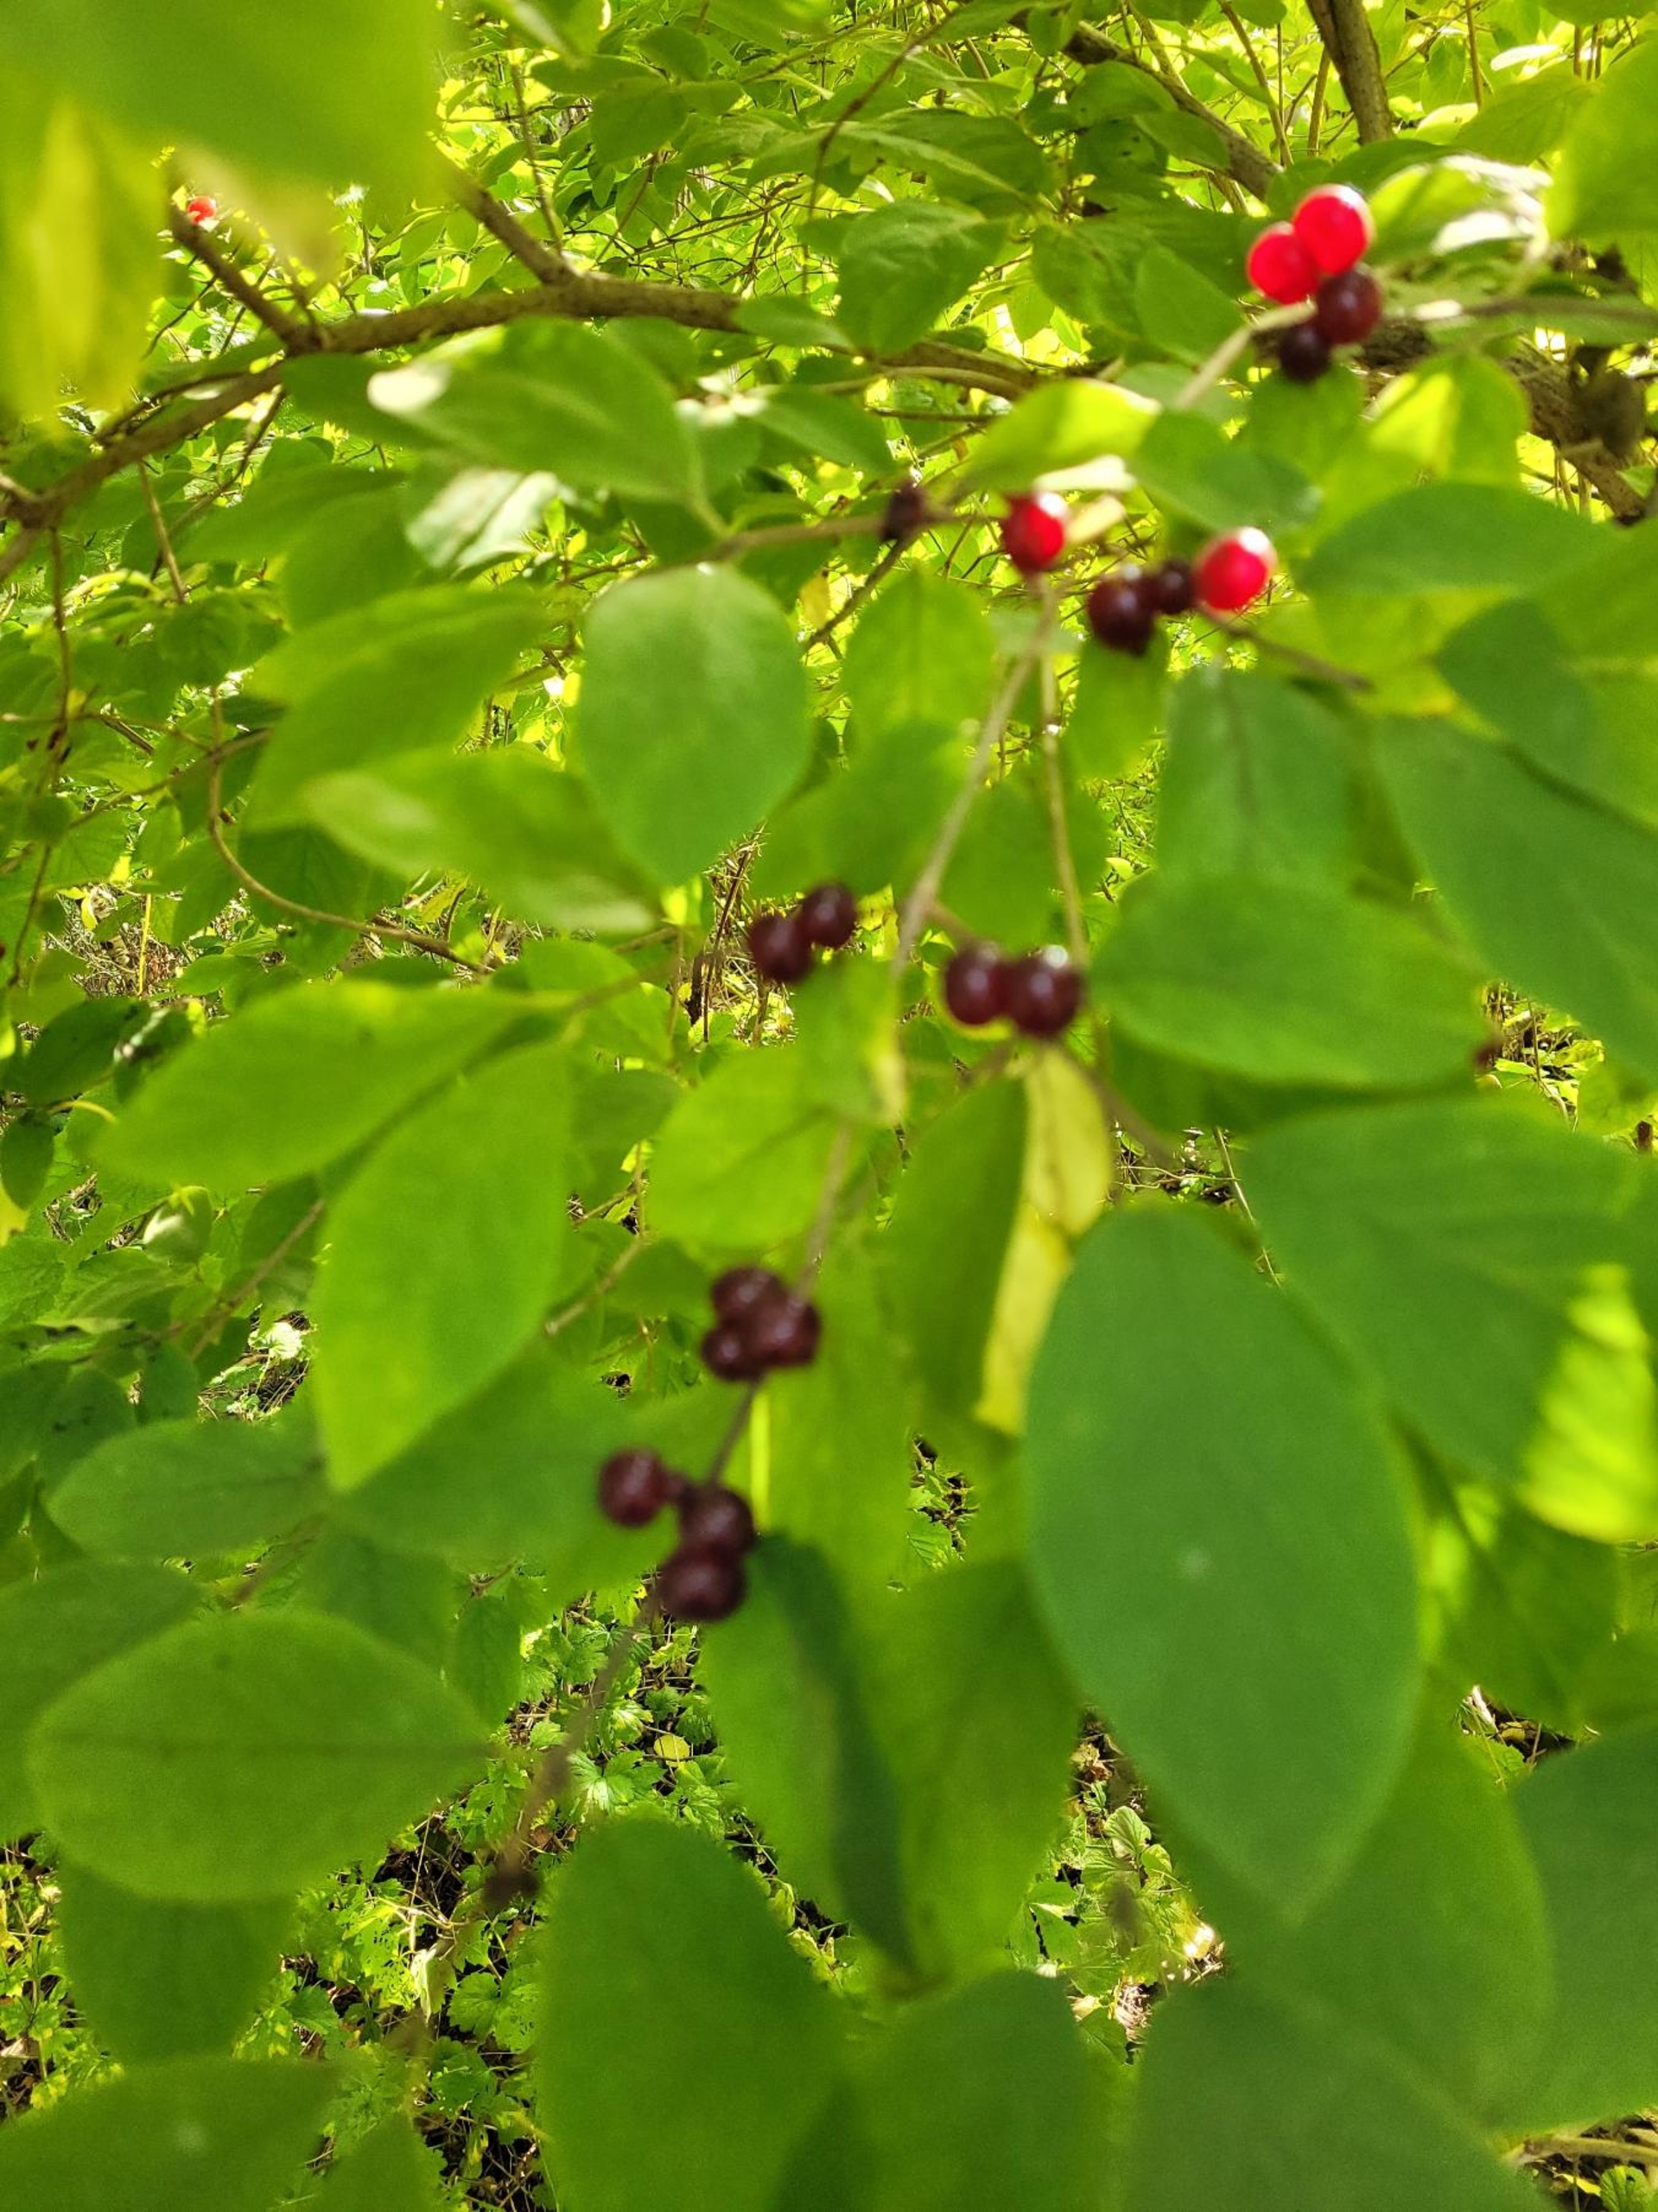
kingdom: Plantae
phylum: Tracheophyta
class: Magnoliopsida
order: Dipsacales
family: Caprifoliaceae
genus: Lonicera
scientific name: Lonicera xylosteum
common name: Dunet gedeblad
